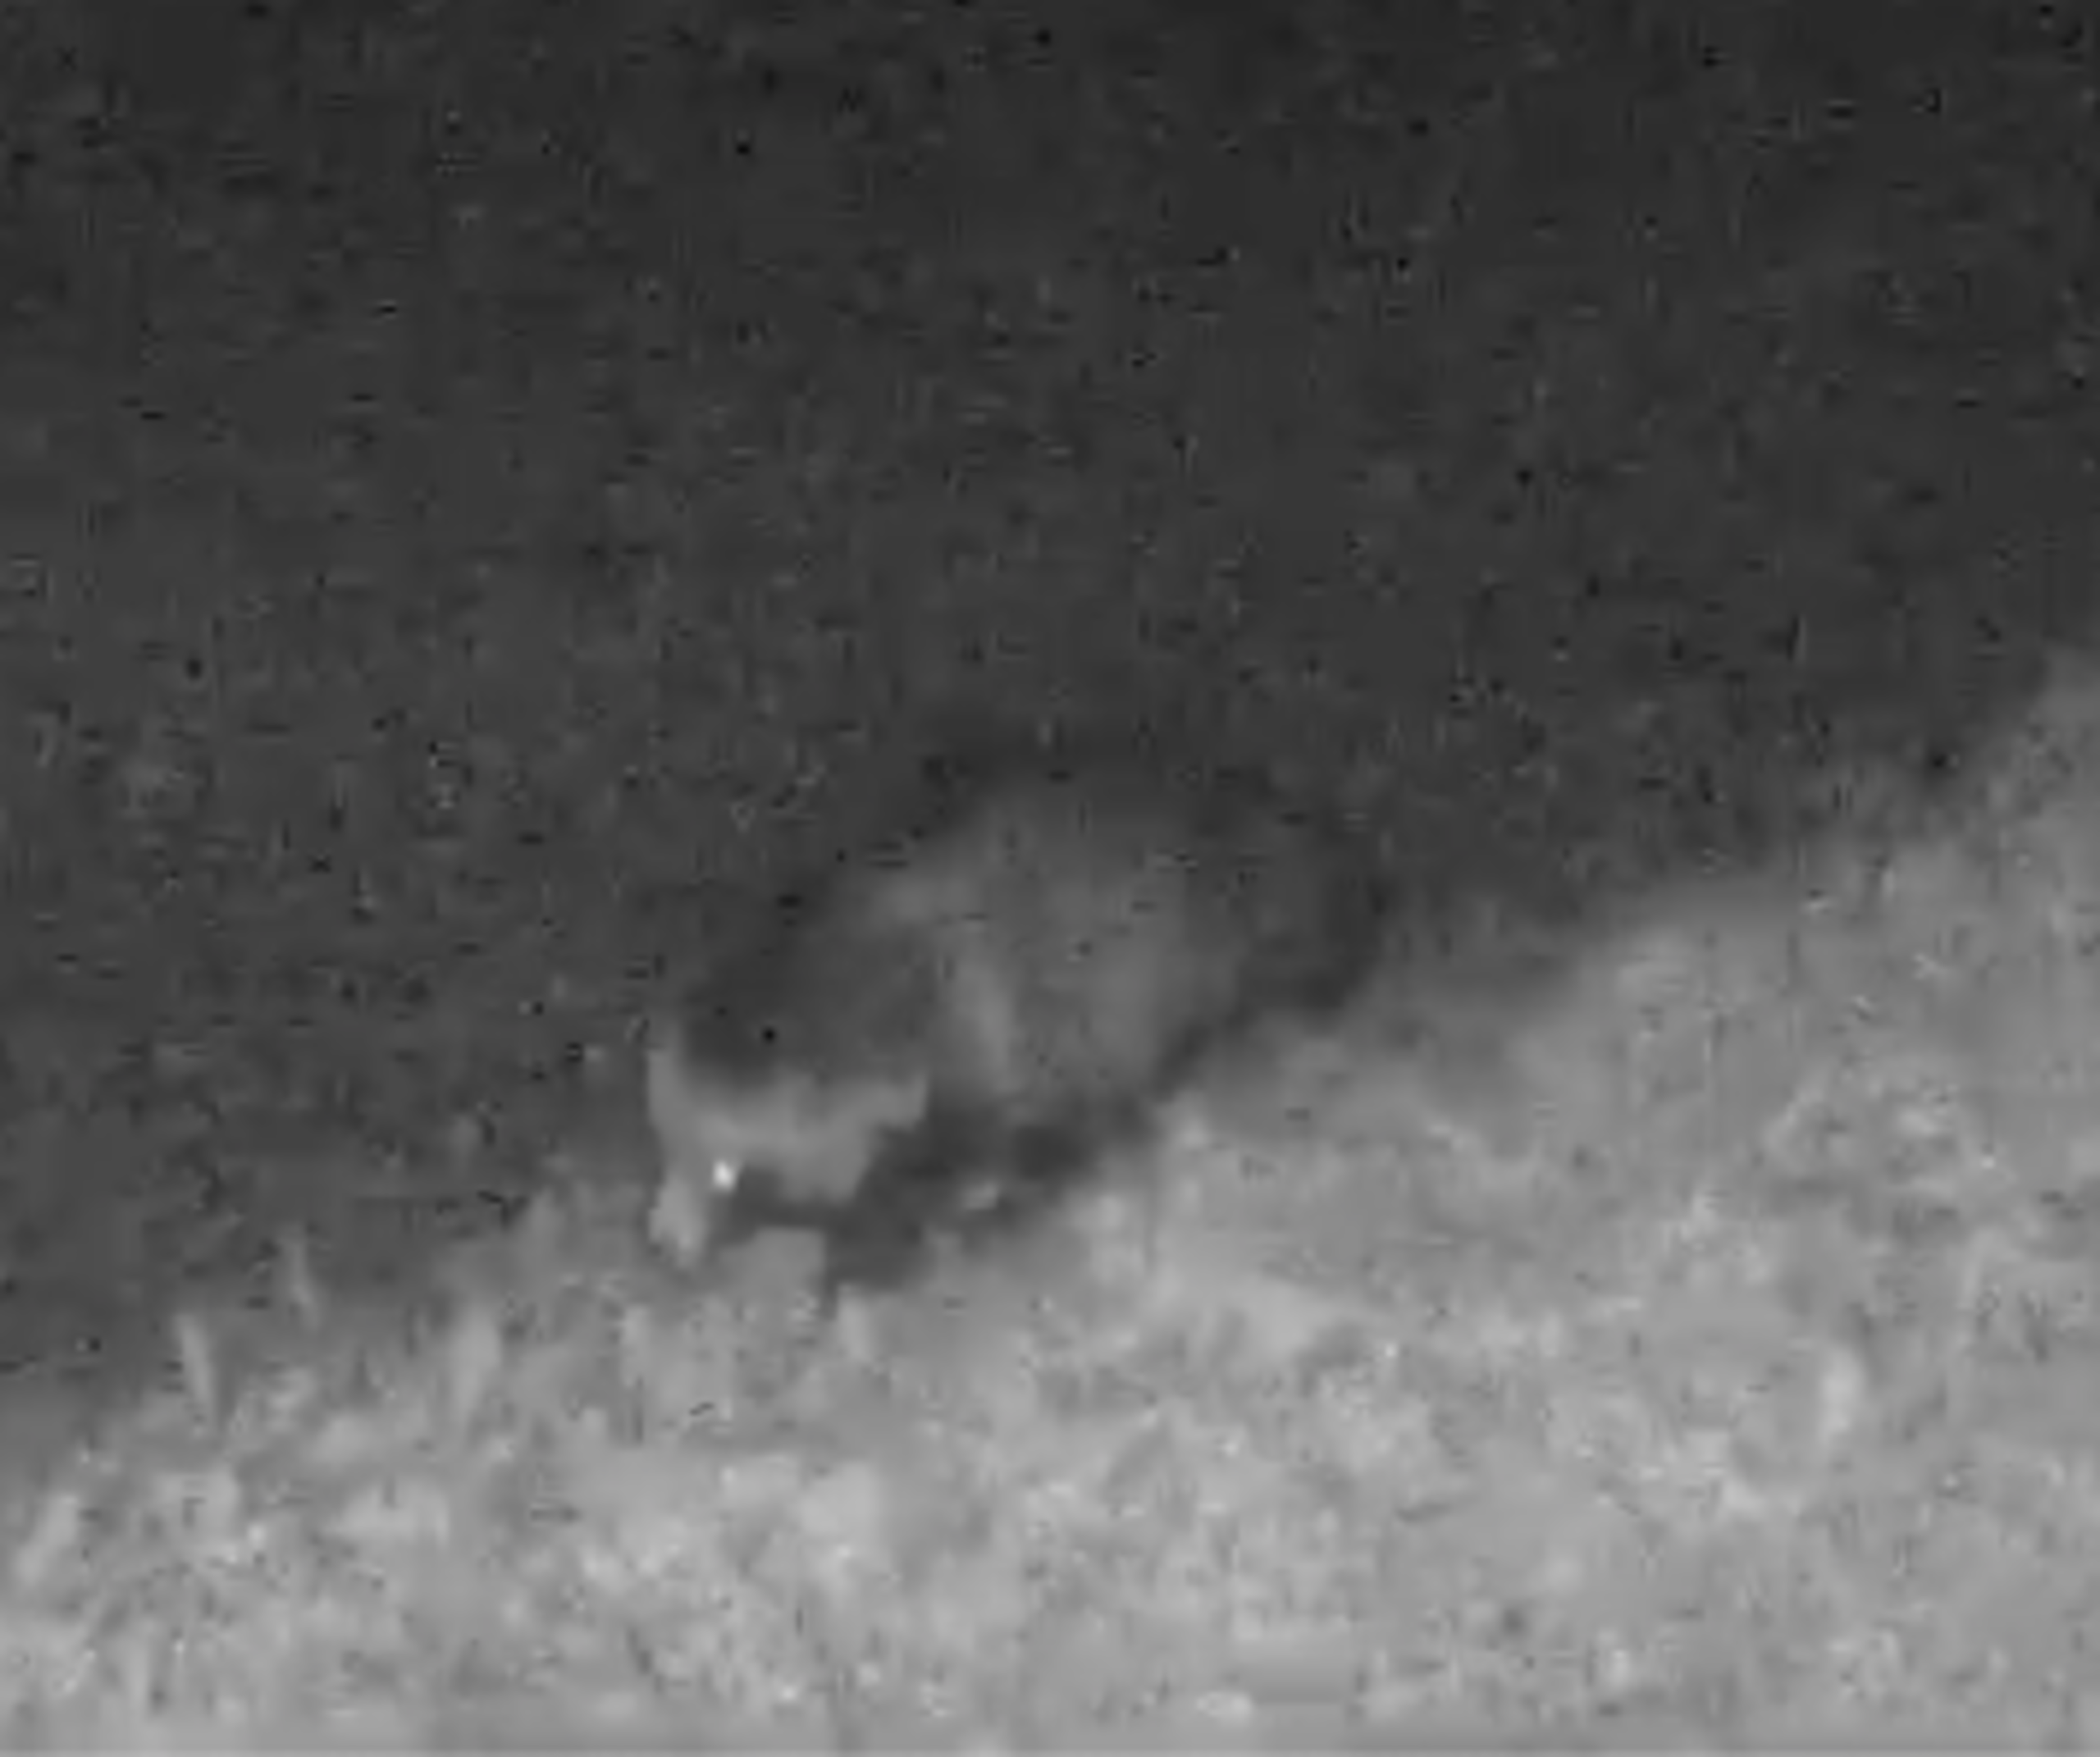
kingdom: Animalia
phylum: Chordata
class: Mammalia
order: Carnivora
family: Canidae
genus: Nyctereutes
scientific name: Nyctereutes procyonoides
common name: Mårhund
